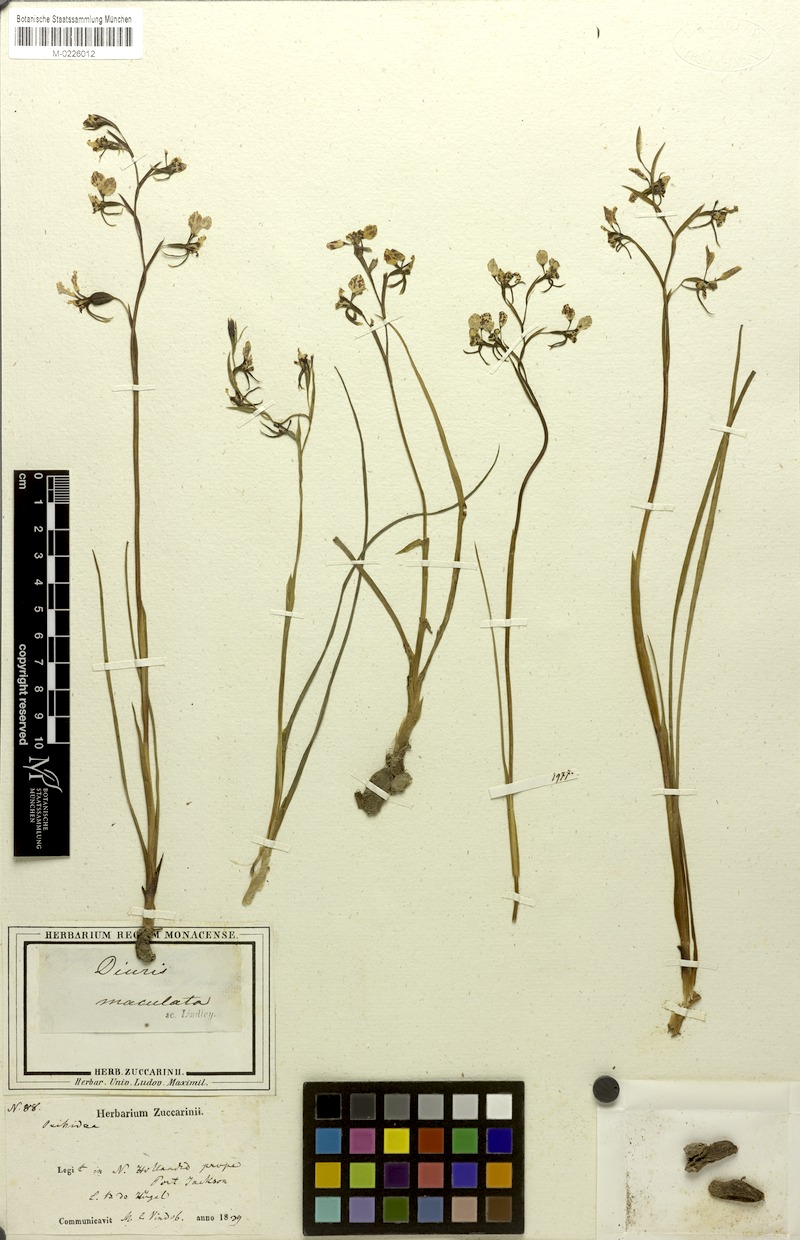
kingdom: Plantae
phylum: Tracheophyta
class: Liliopsida
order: Asparagales
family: Orchidaceae
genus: Diuris
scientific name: Diuris maculata
